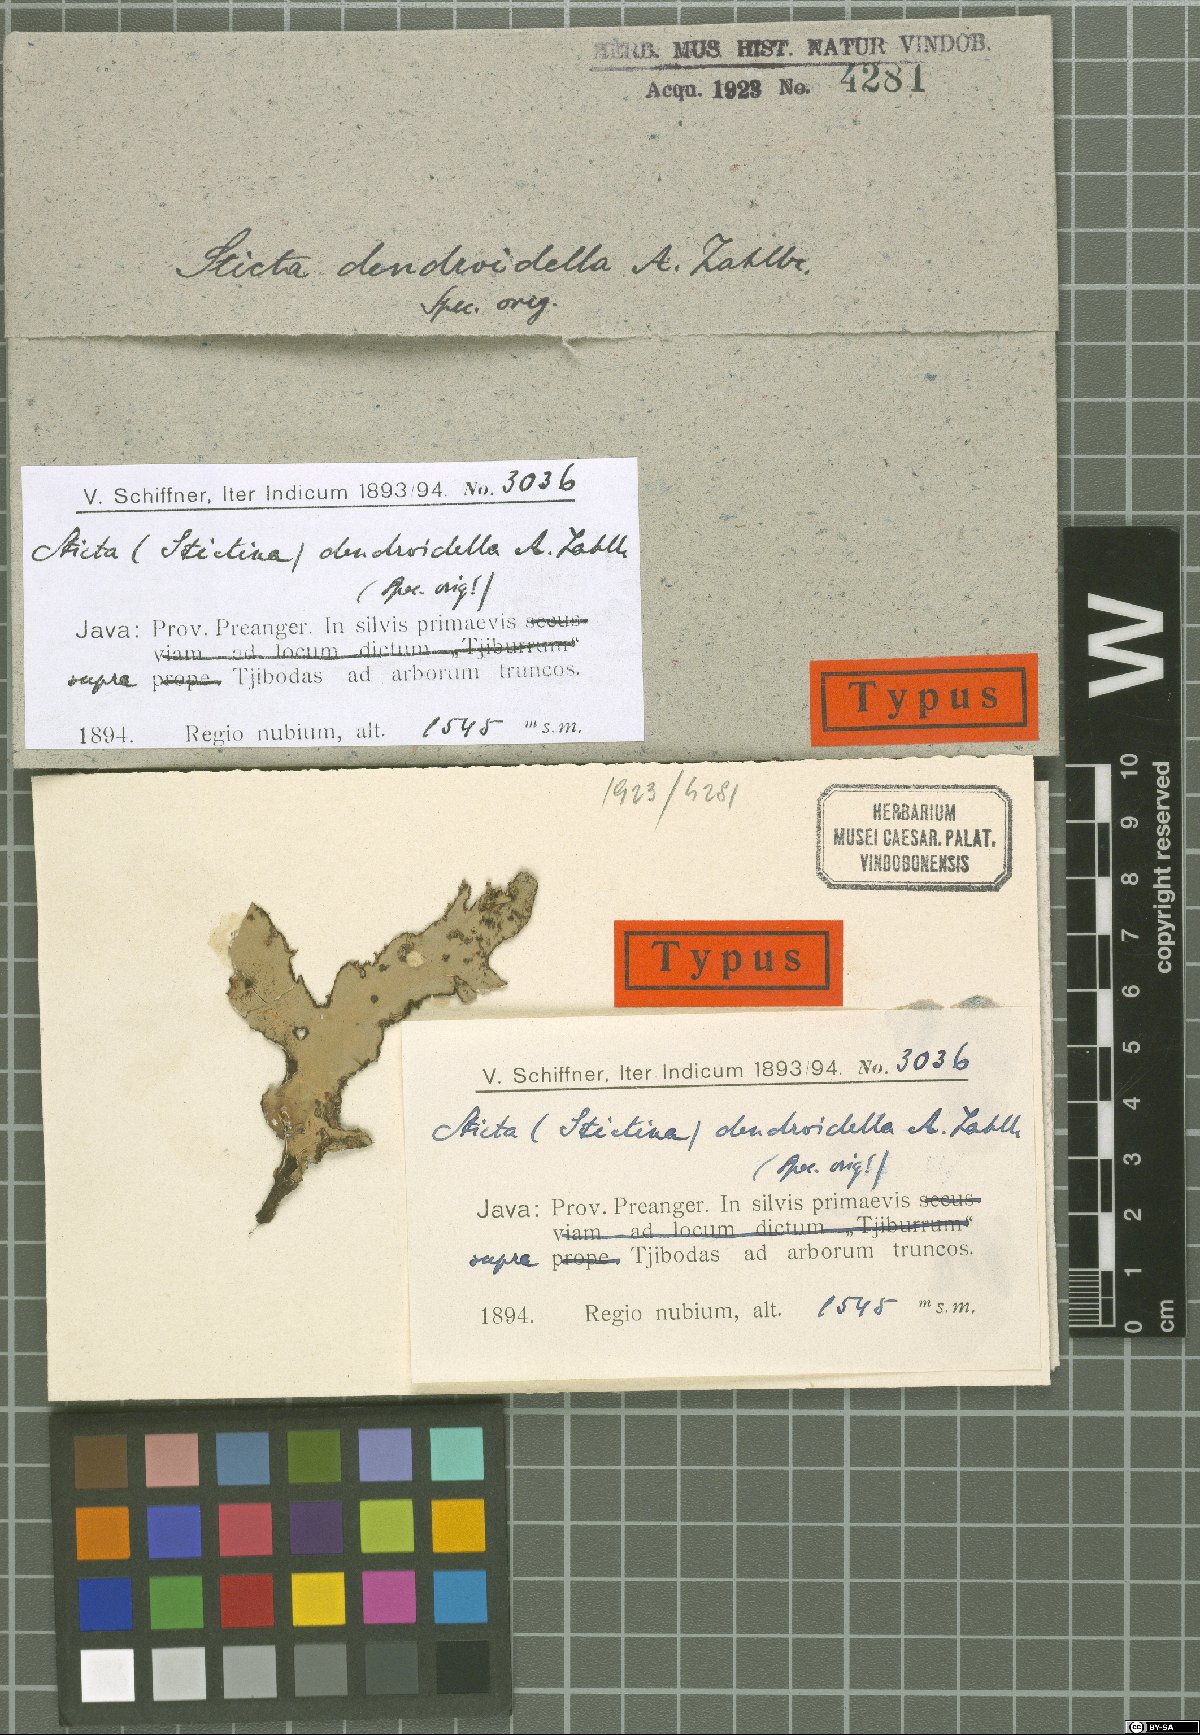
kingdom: Fungi
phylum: Ascomycota
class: Lecanoromycetes
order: Peltigerales
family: Lobariaceae
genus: Sticta
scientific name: Sticta dendroides
